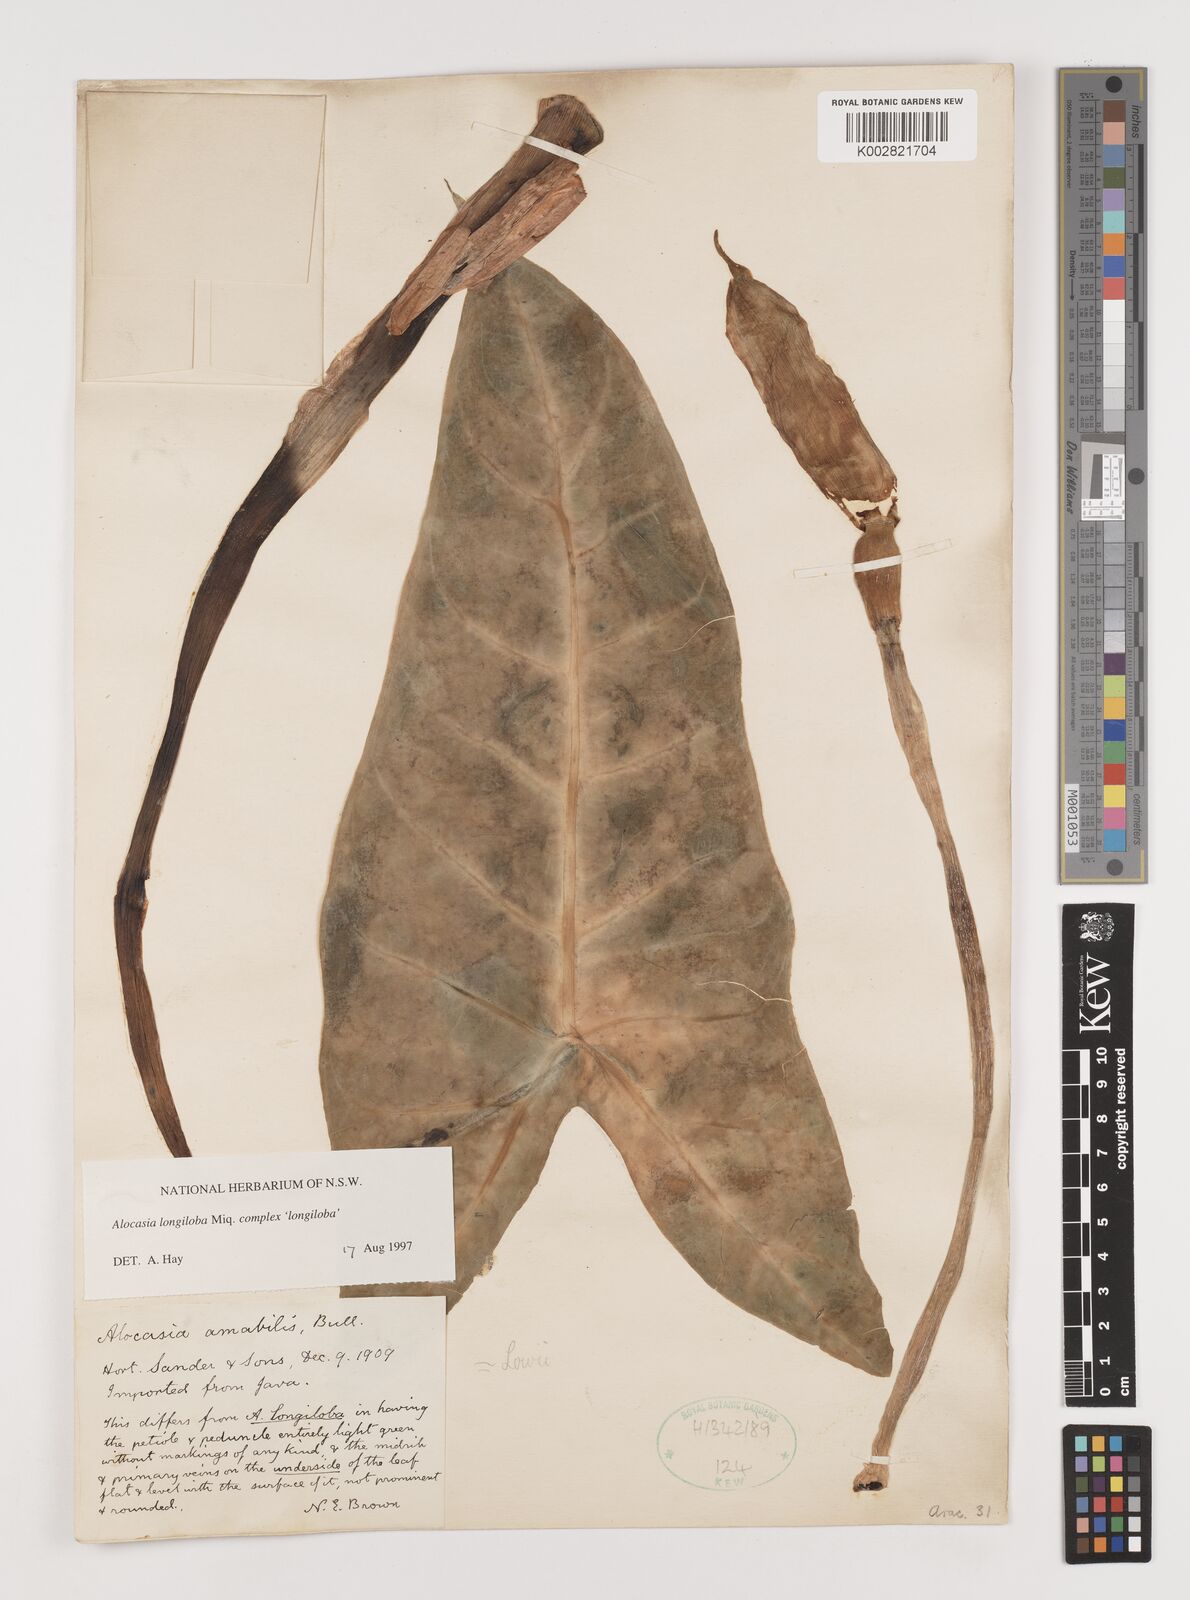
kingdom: Plantae
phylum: Tracheophyta
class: Liliopsida
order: Alismatales
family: Araceae
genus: Alocasia
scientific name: Alocasia longiloba
